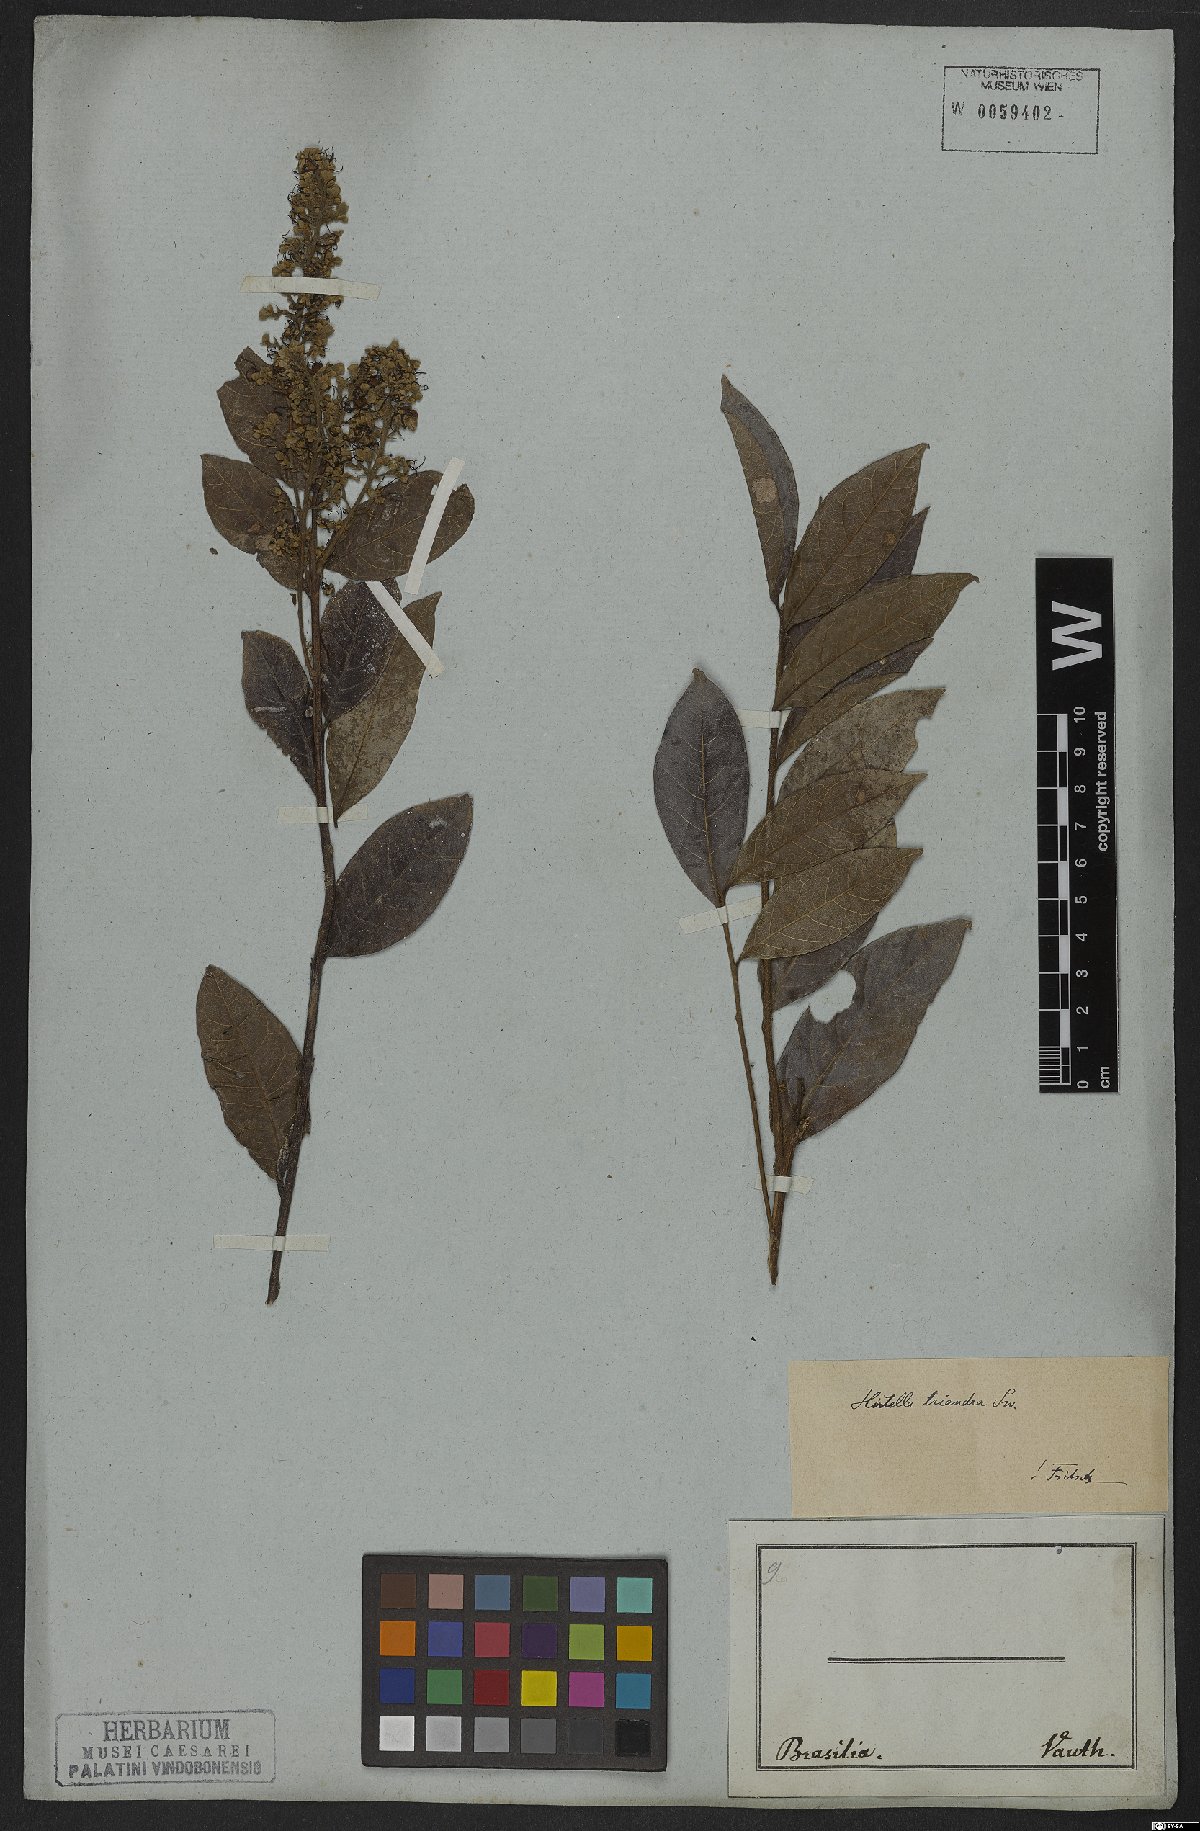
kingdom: Plantae
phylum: Tracheophyta
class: Magnoliopsida
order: Malpighiales
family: Chrysobalanaceae
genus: Hirtella
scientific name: Hirtella triandra
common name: Hairy plum
